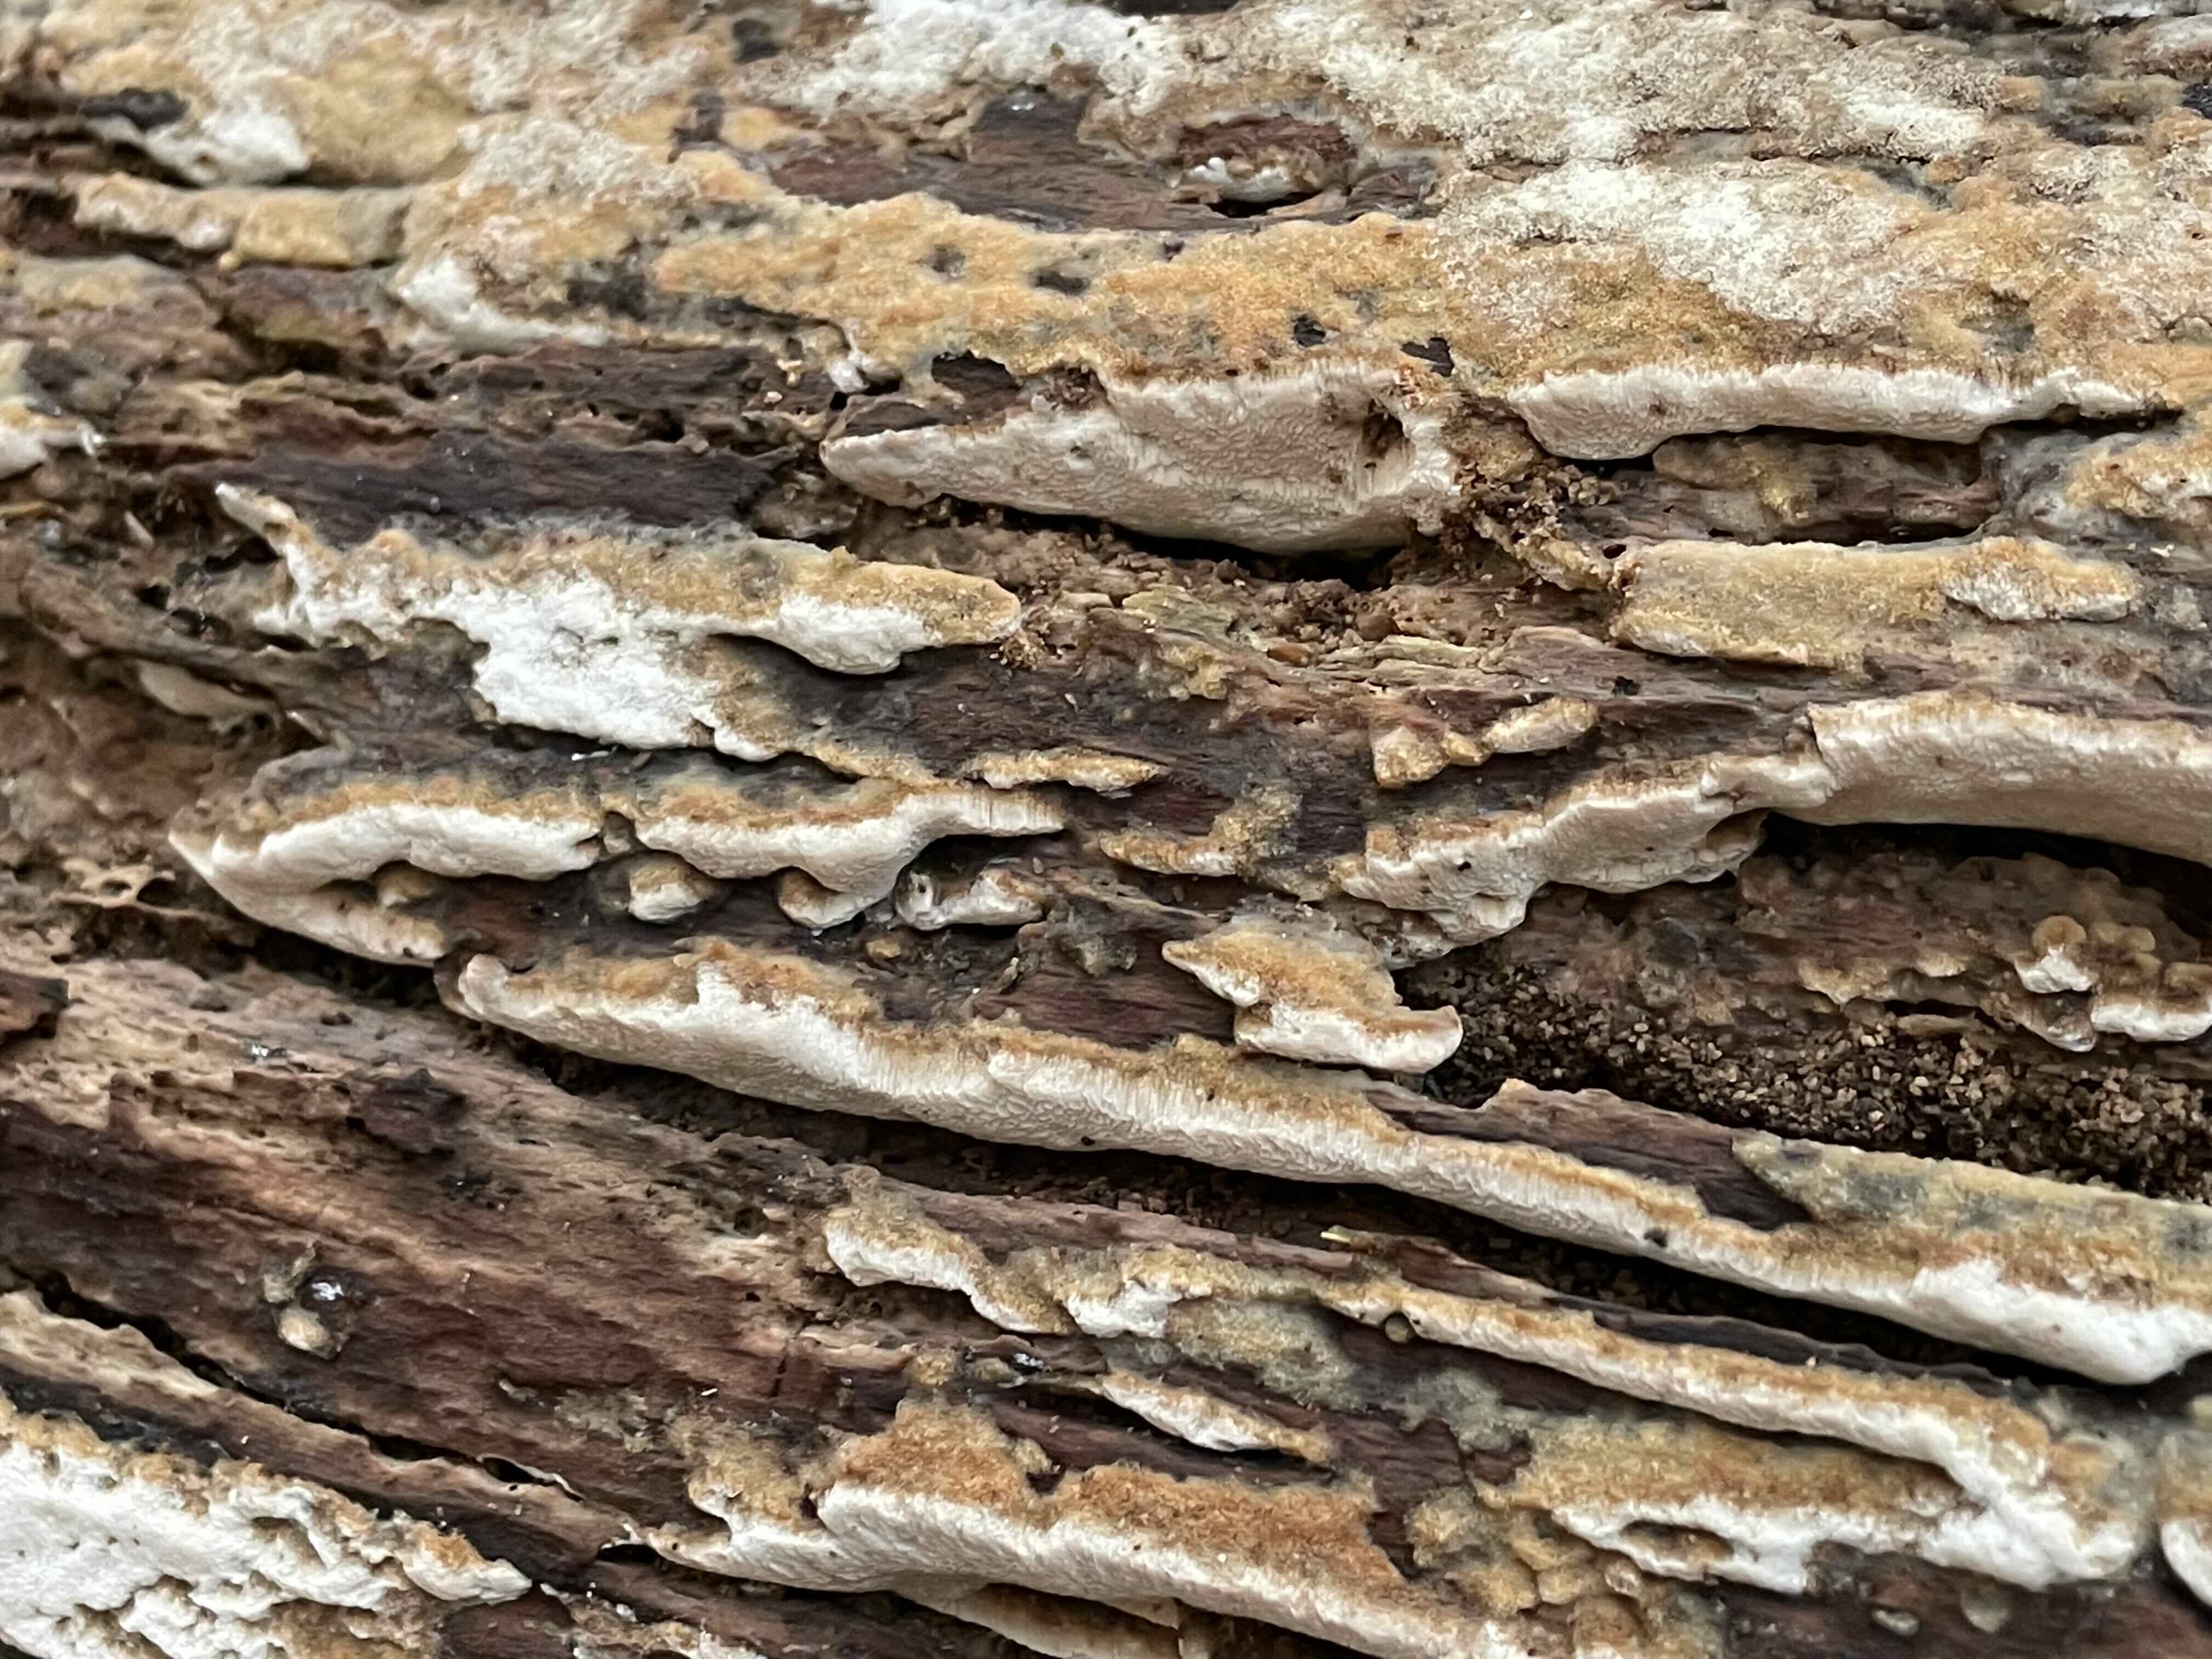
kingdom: Fungi
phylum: Basidiomycota
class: Agaricomycetes
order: Polyporales
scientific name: Polyporales
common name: poresvampordenen
